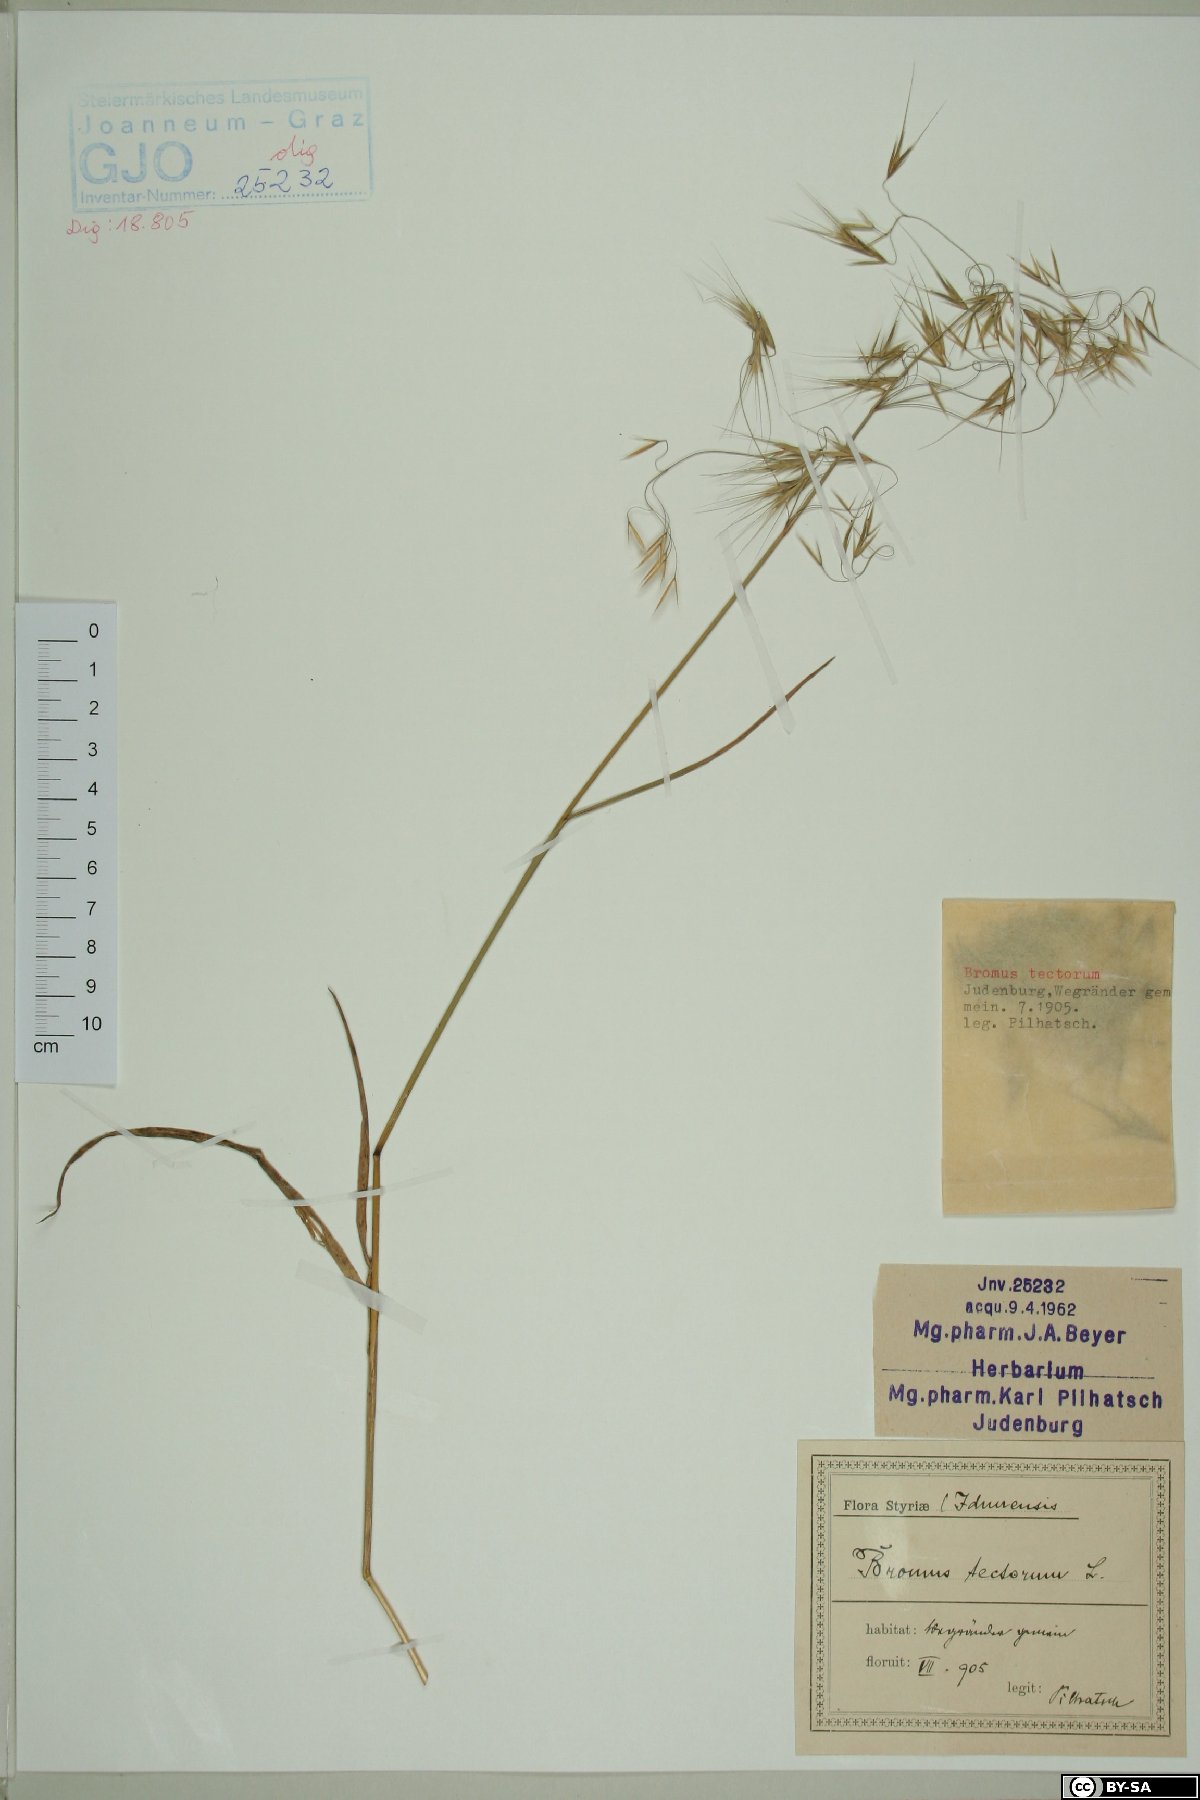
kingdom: Plantae
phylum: Tracheophyta
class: Liliopsida
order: Poales
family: Poaceae
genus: Bromus
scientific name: Bromus tectorum
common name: Cheatgrass
